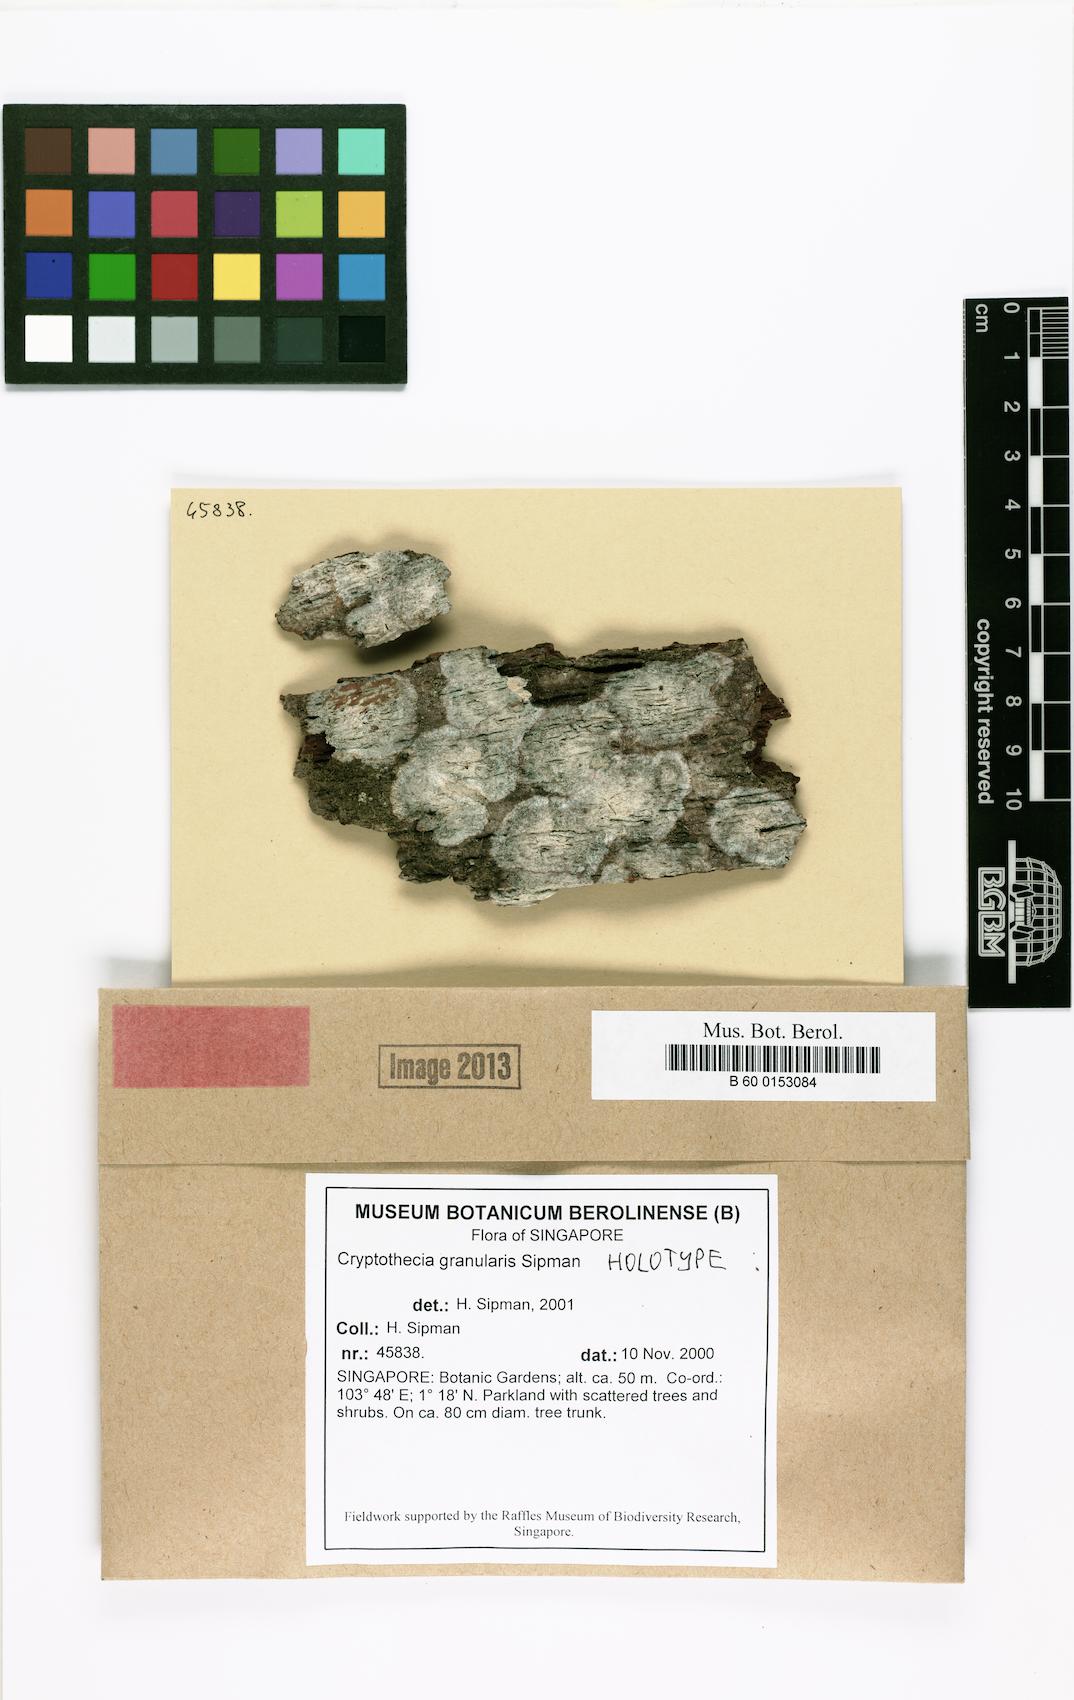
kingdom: Fungi
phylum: Ascomycota
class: Arthoniomycetes
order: Arthoniales
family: Arthoniaceae
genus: Herpothallon
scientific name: Herpothallon granulare
